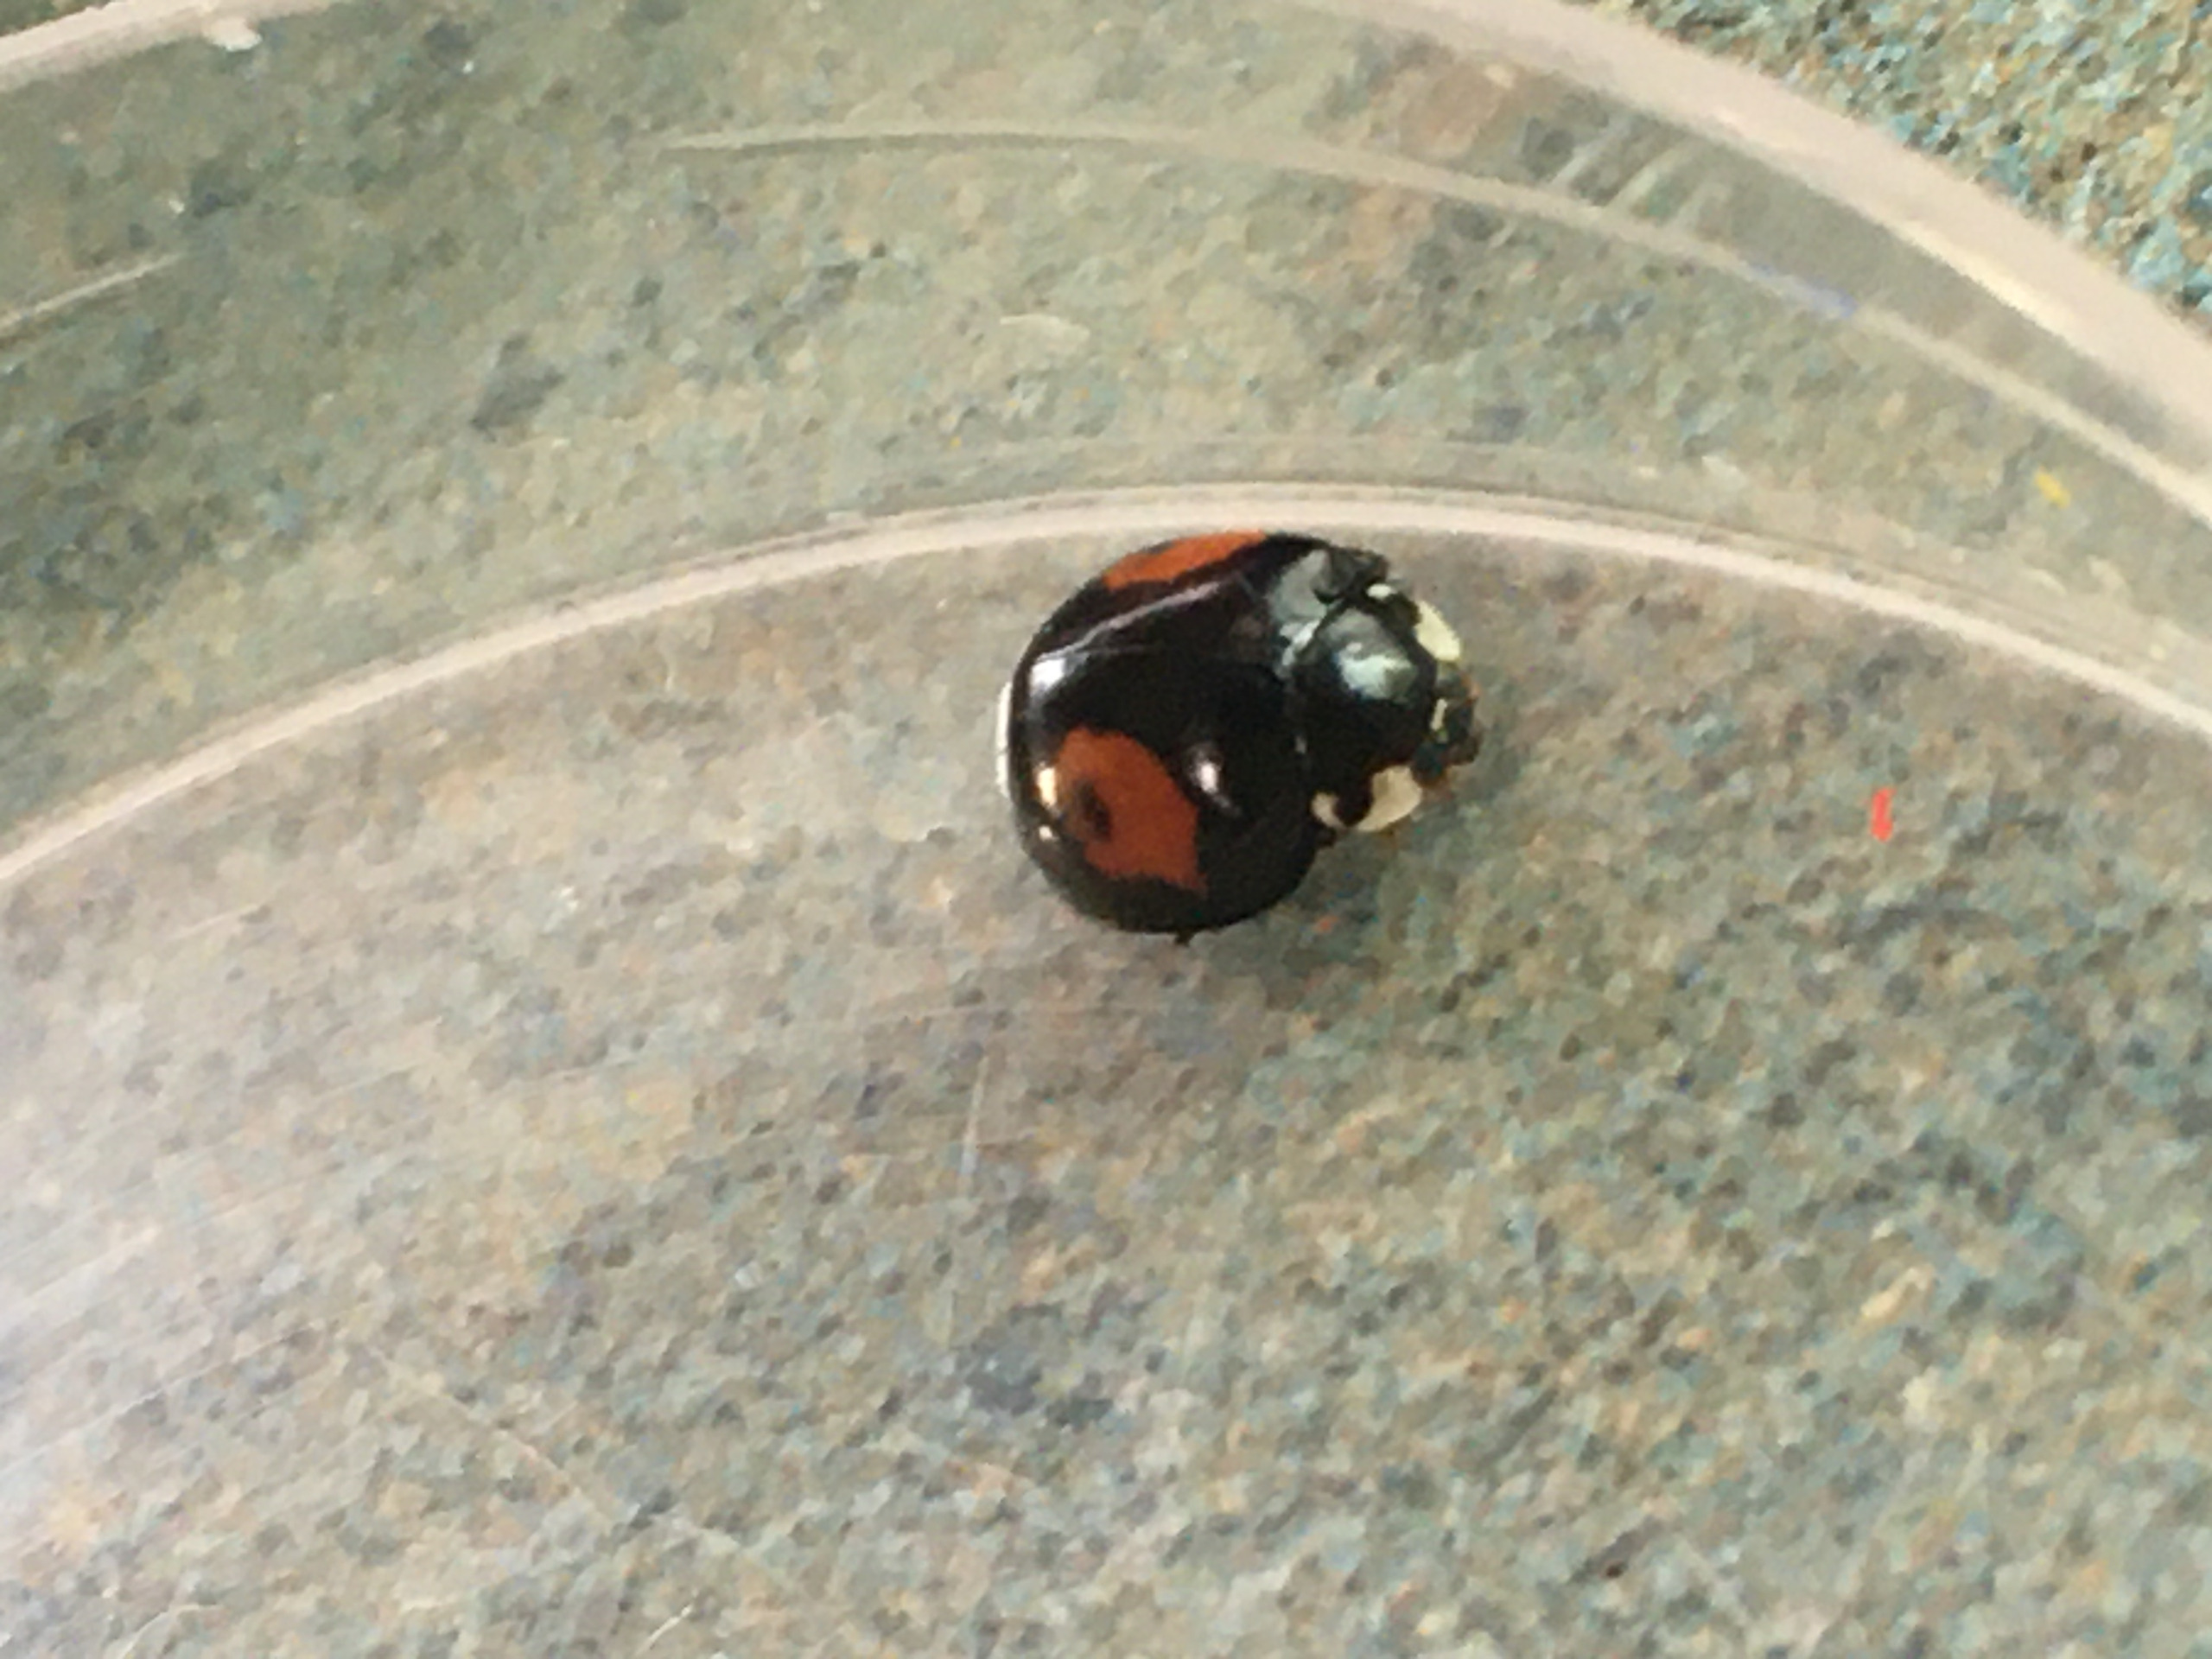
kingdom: Animalia
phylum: Arthropoda
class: Insecta
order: Coleoptera
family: Coccinellidae
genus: Harmonia
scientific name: Harmonia axyridis
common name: Harlekinmariehøne
